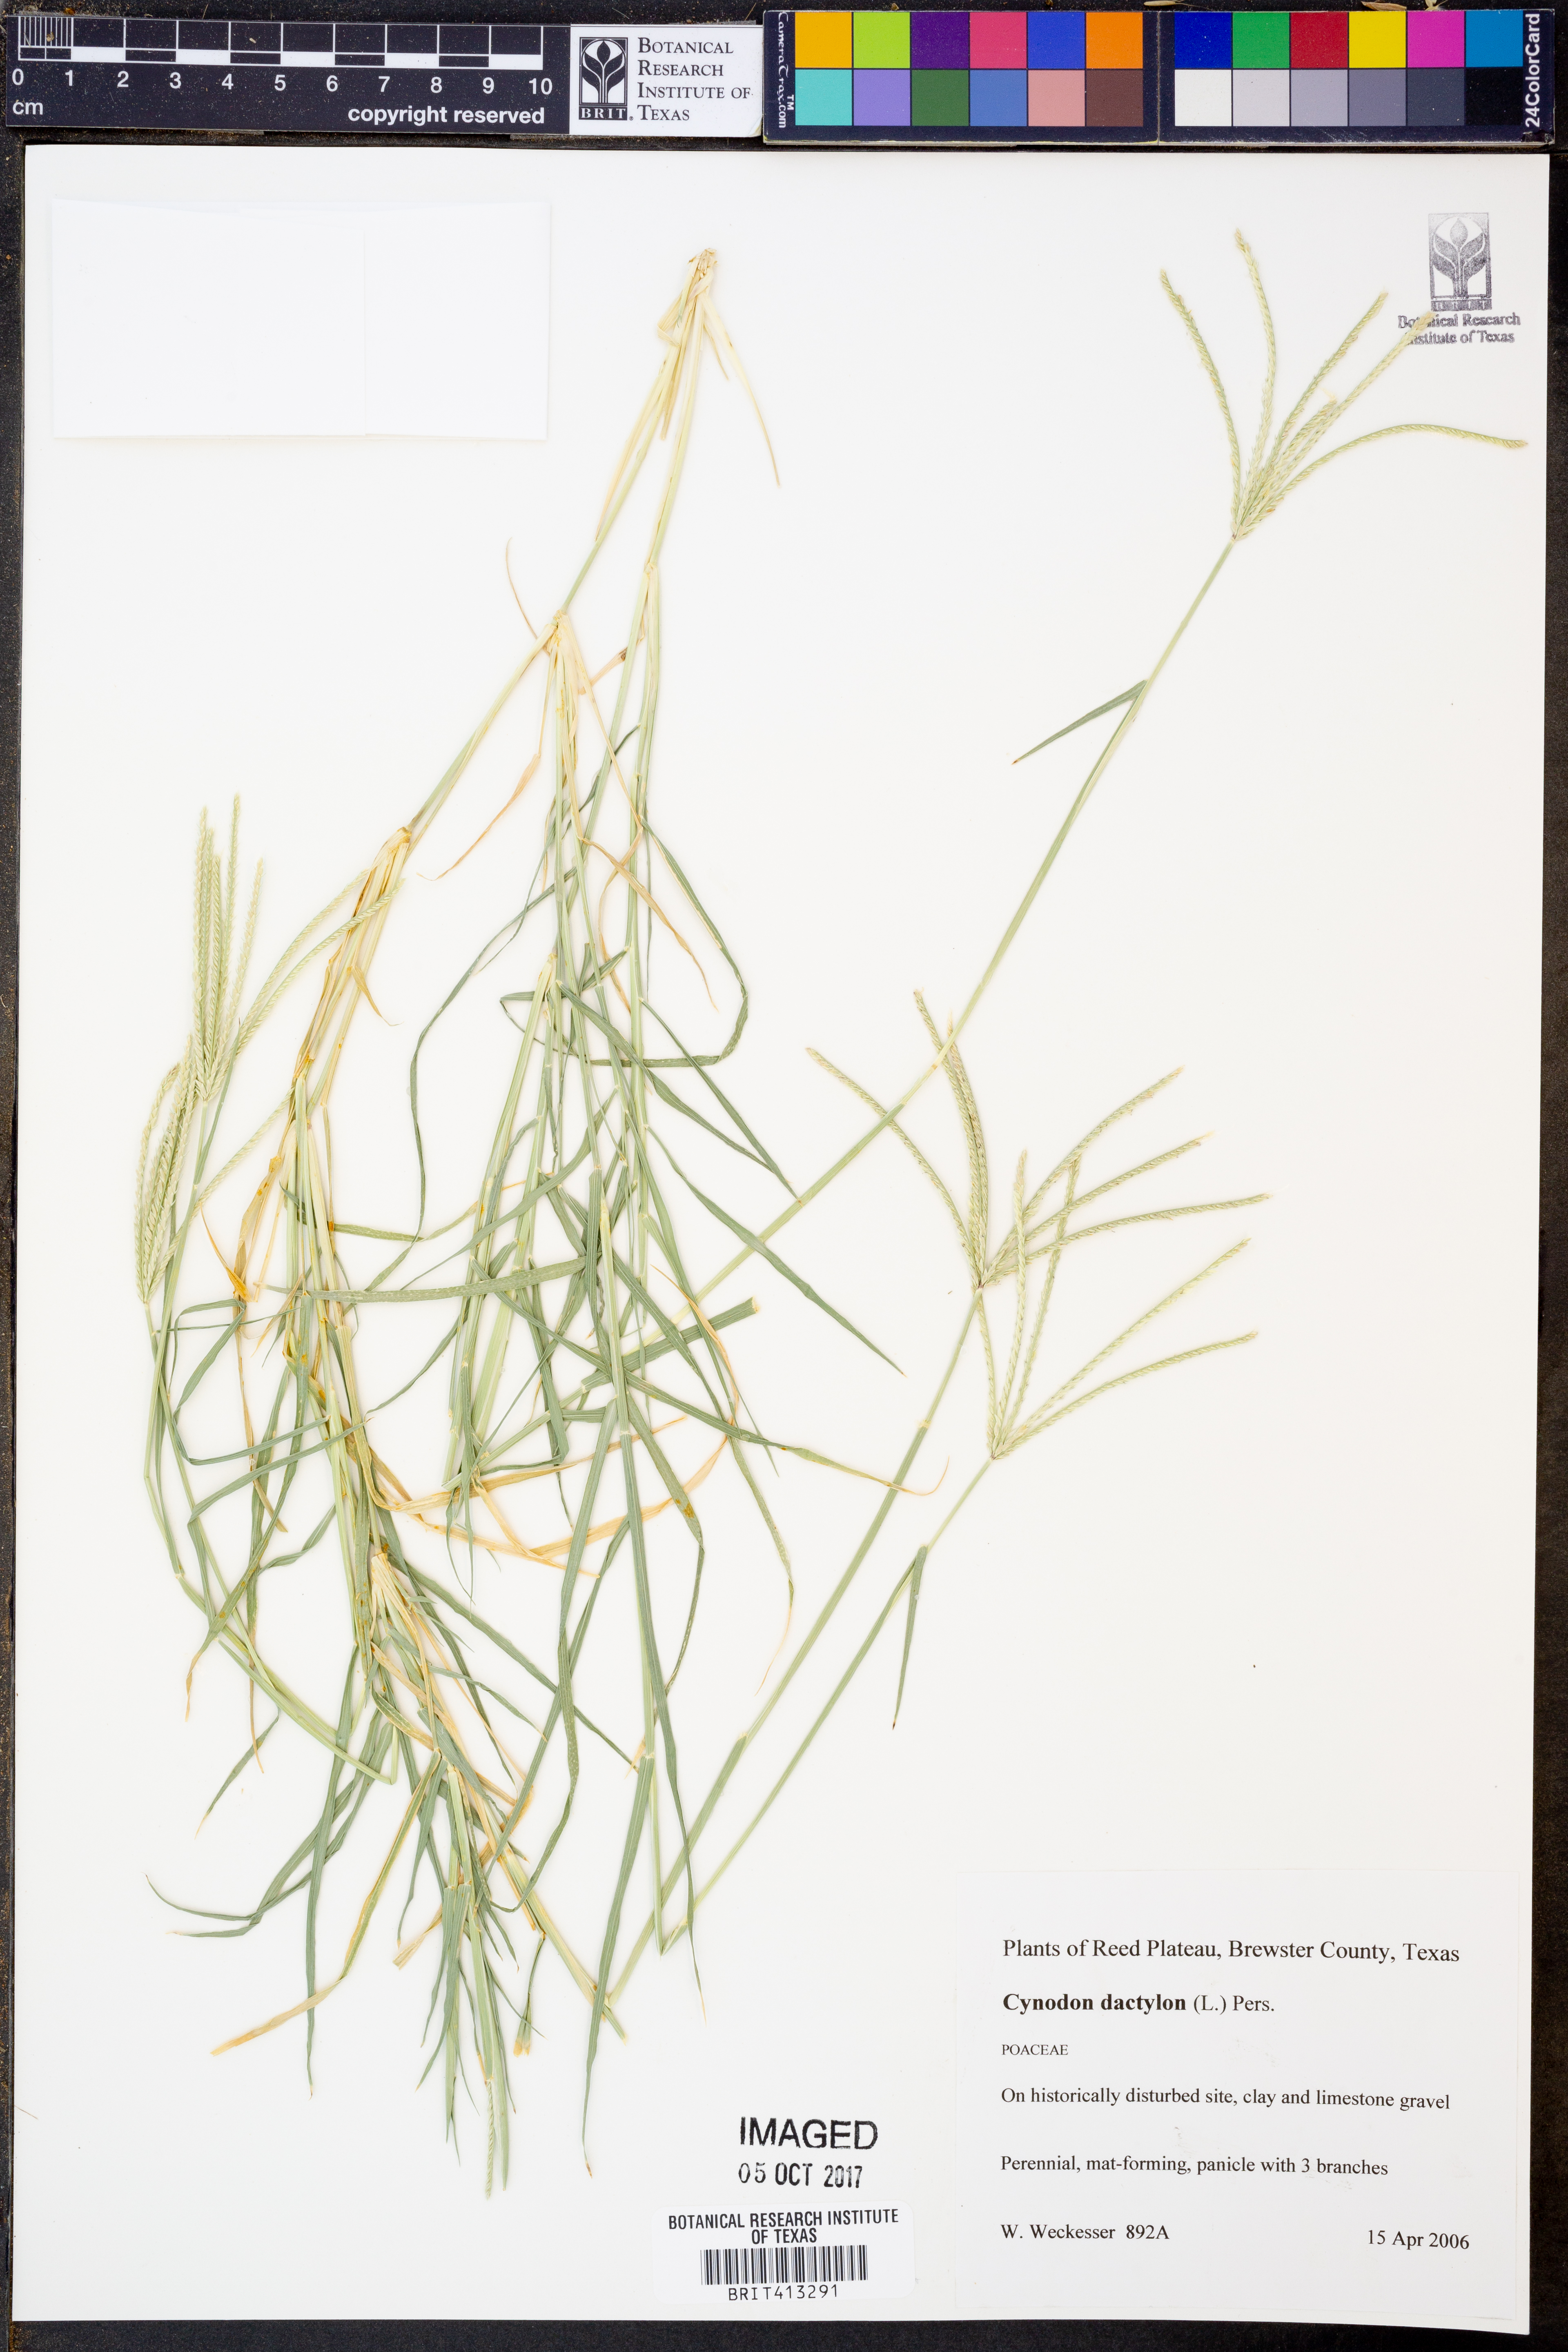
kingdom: Plantae
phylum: Tracheophyta
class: Liliopsida
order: Poales
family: Poaceae
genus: Cynodon
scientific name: Cynodon dactylon
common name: Bermuda grass
